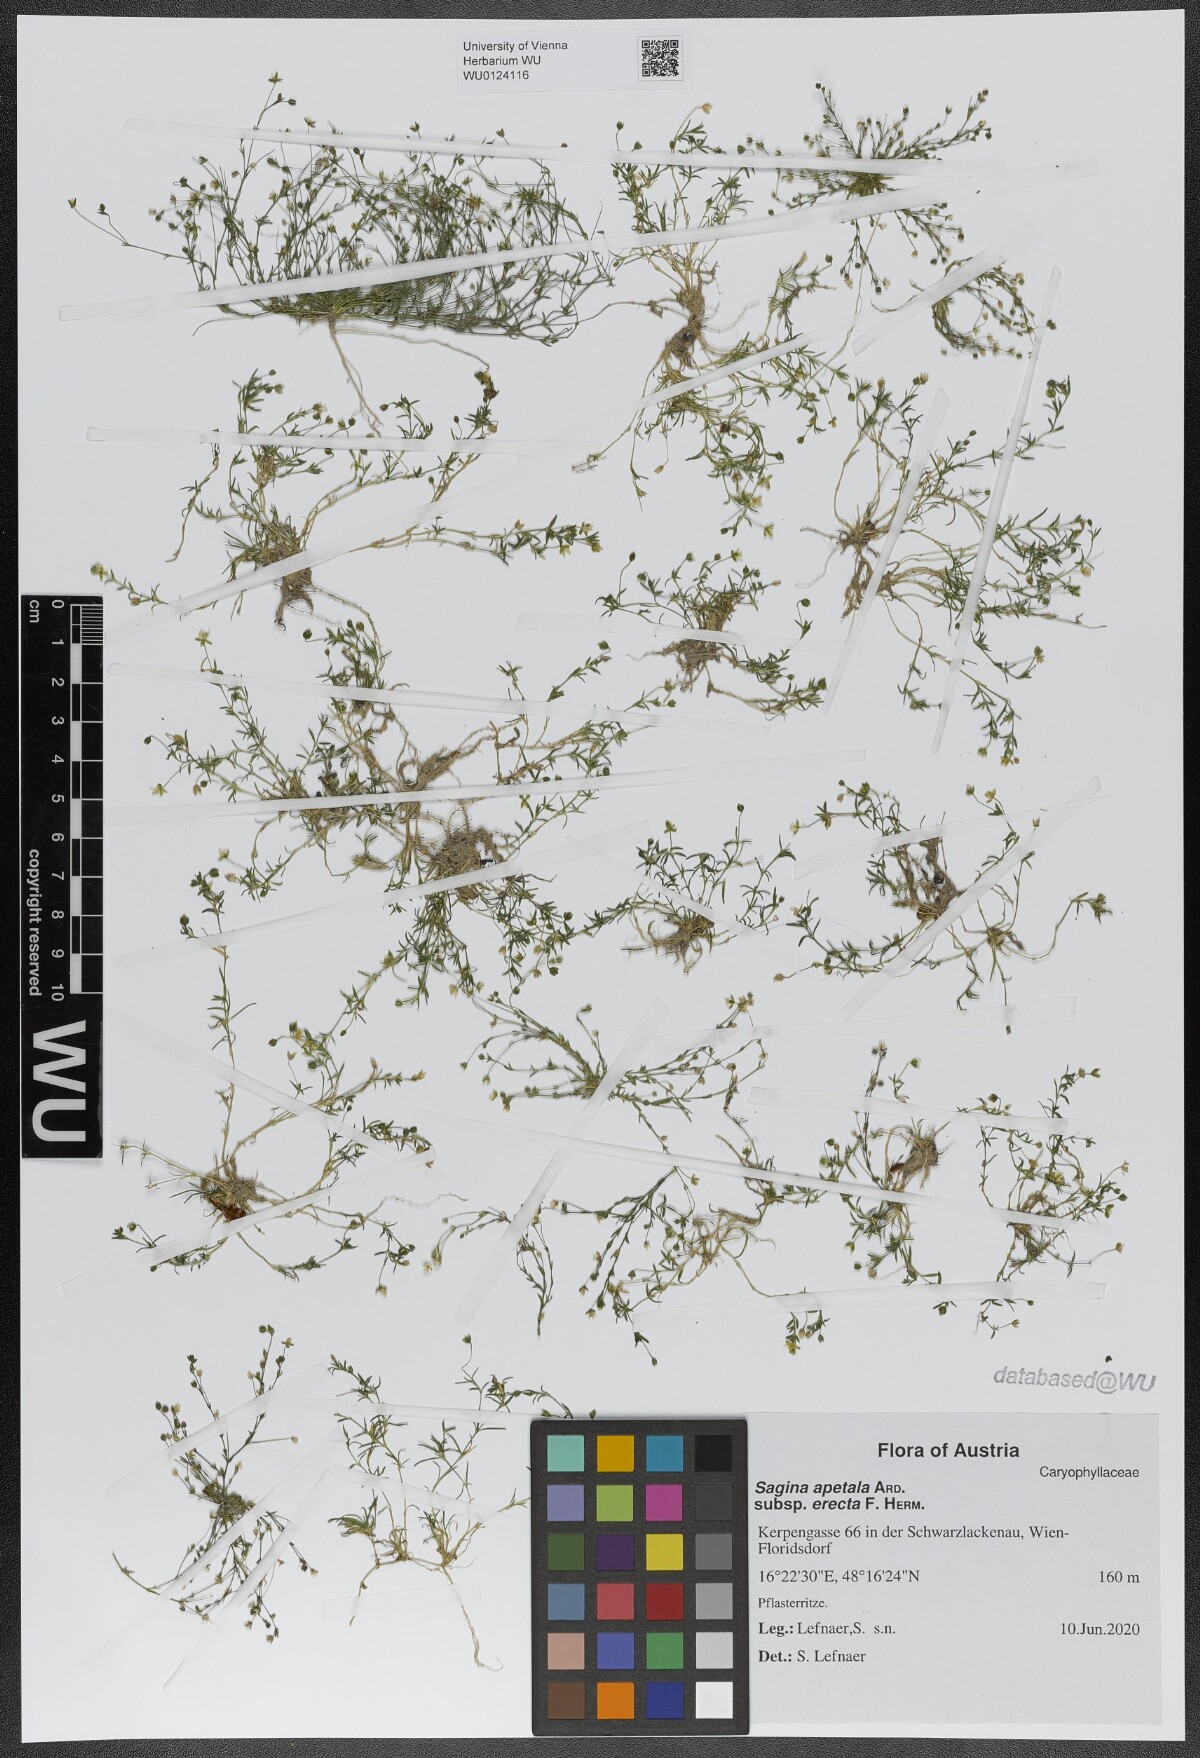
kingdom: Plantae
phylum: Tracheophyta
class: Magnoliopsida
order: Caryophyllales
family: Caryophyllaceae
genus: Sagina
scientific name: Sagina micropetala
